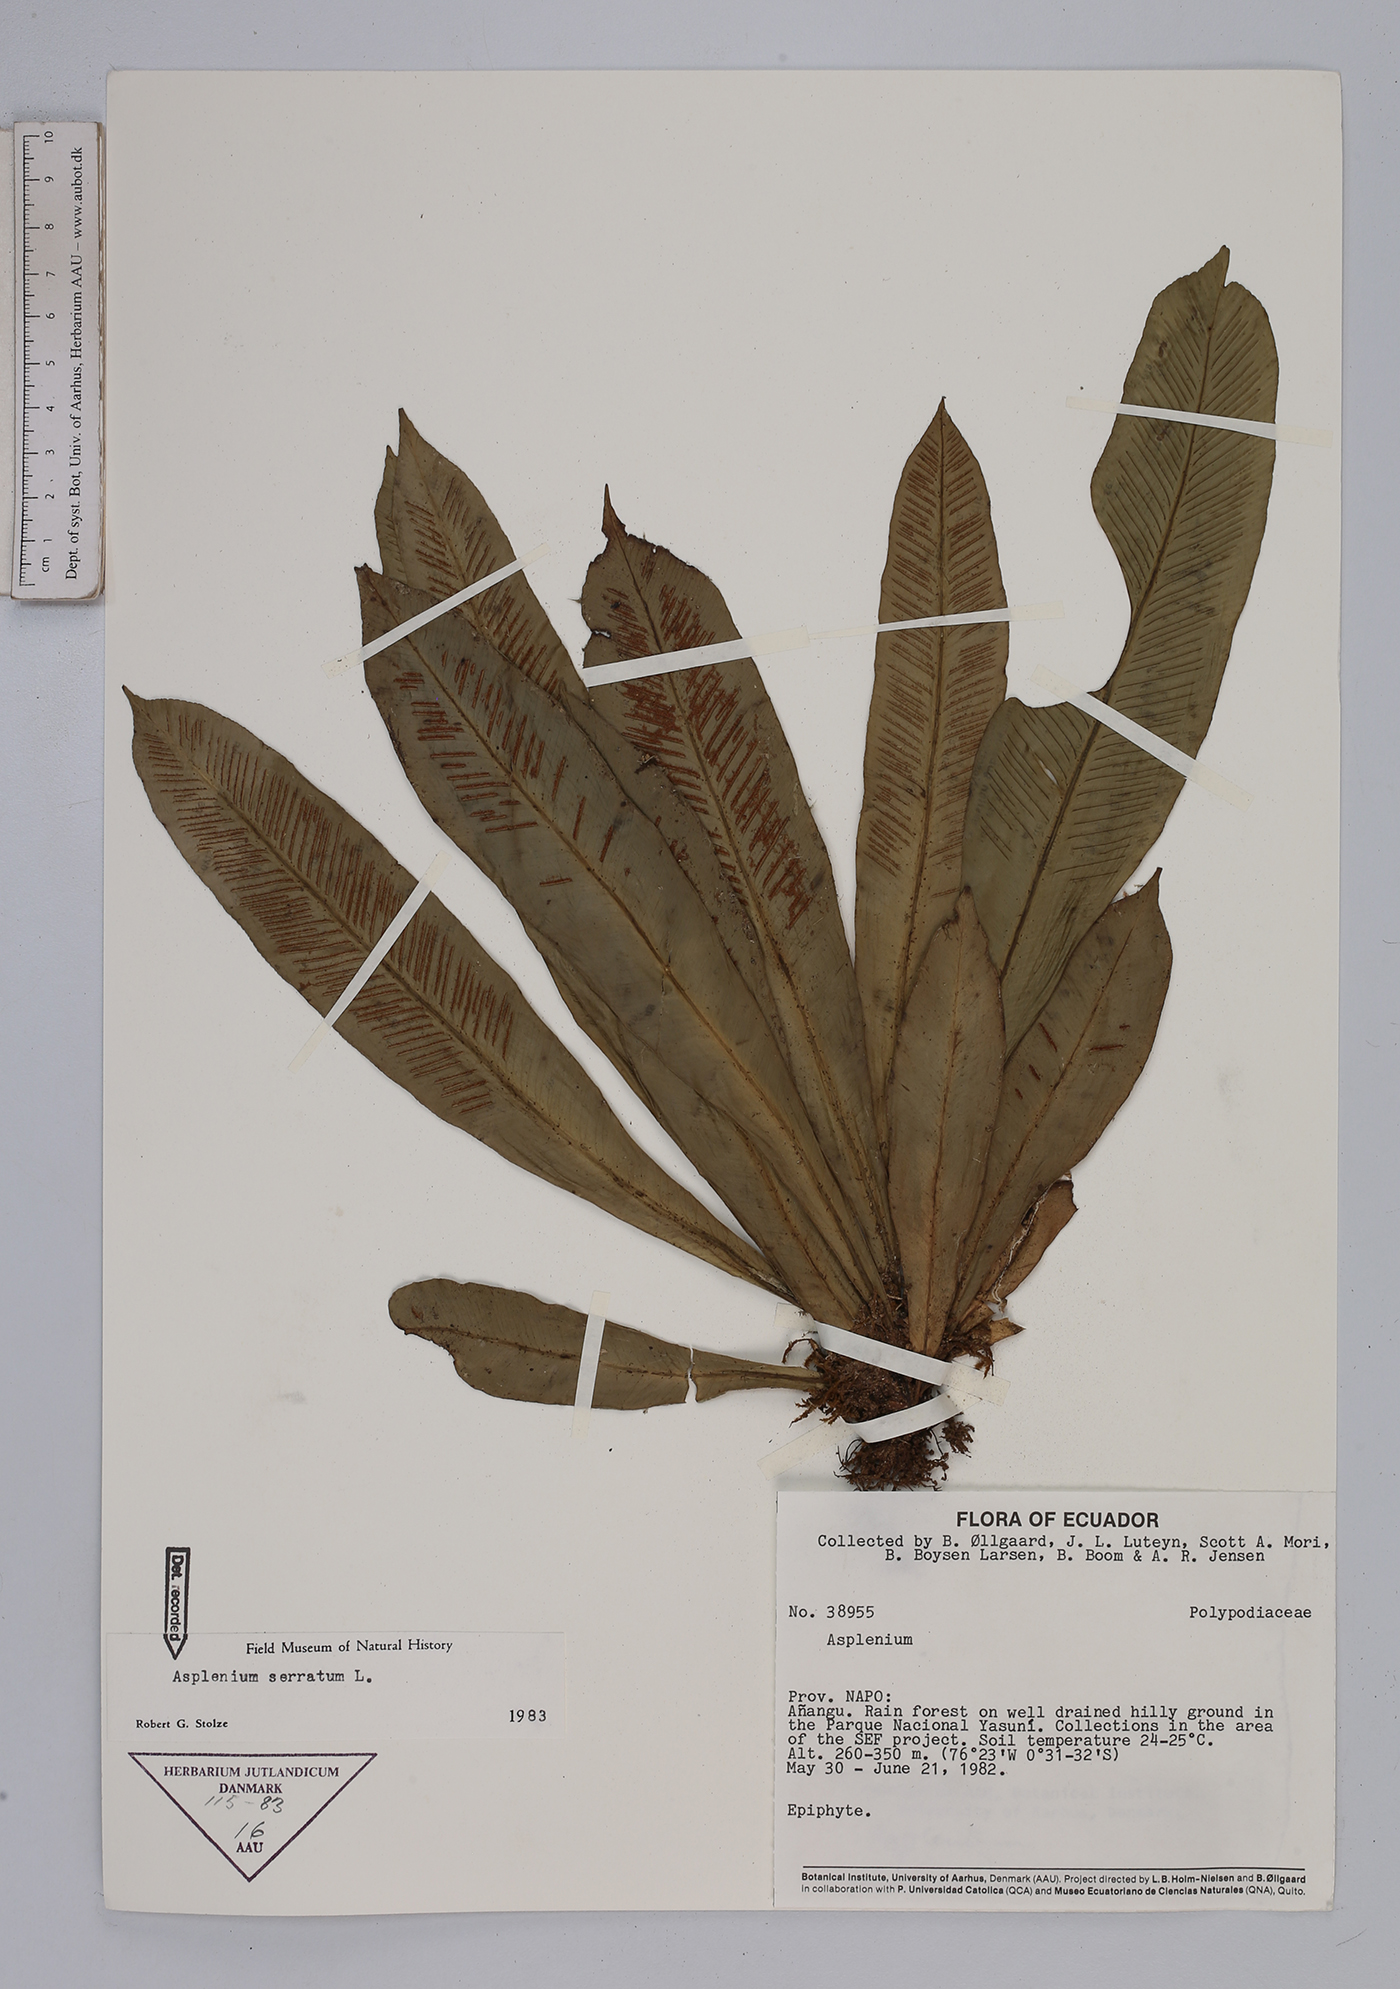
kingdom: Plantae
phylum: Tracheophyta
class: Magnoliopsida
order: Piperales
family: Piperaceae
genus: Peperomia
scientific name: Peperomia alata
